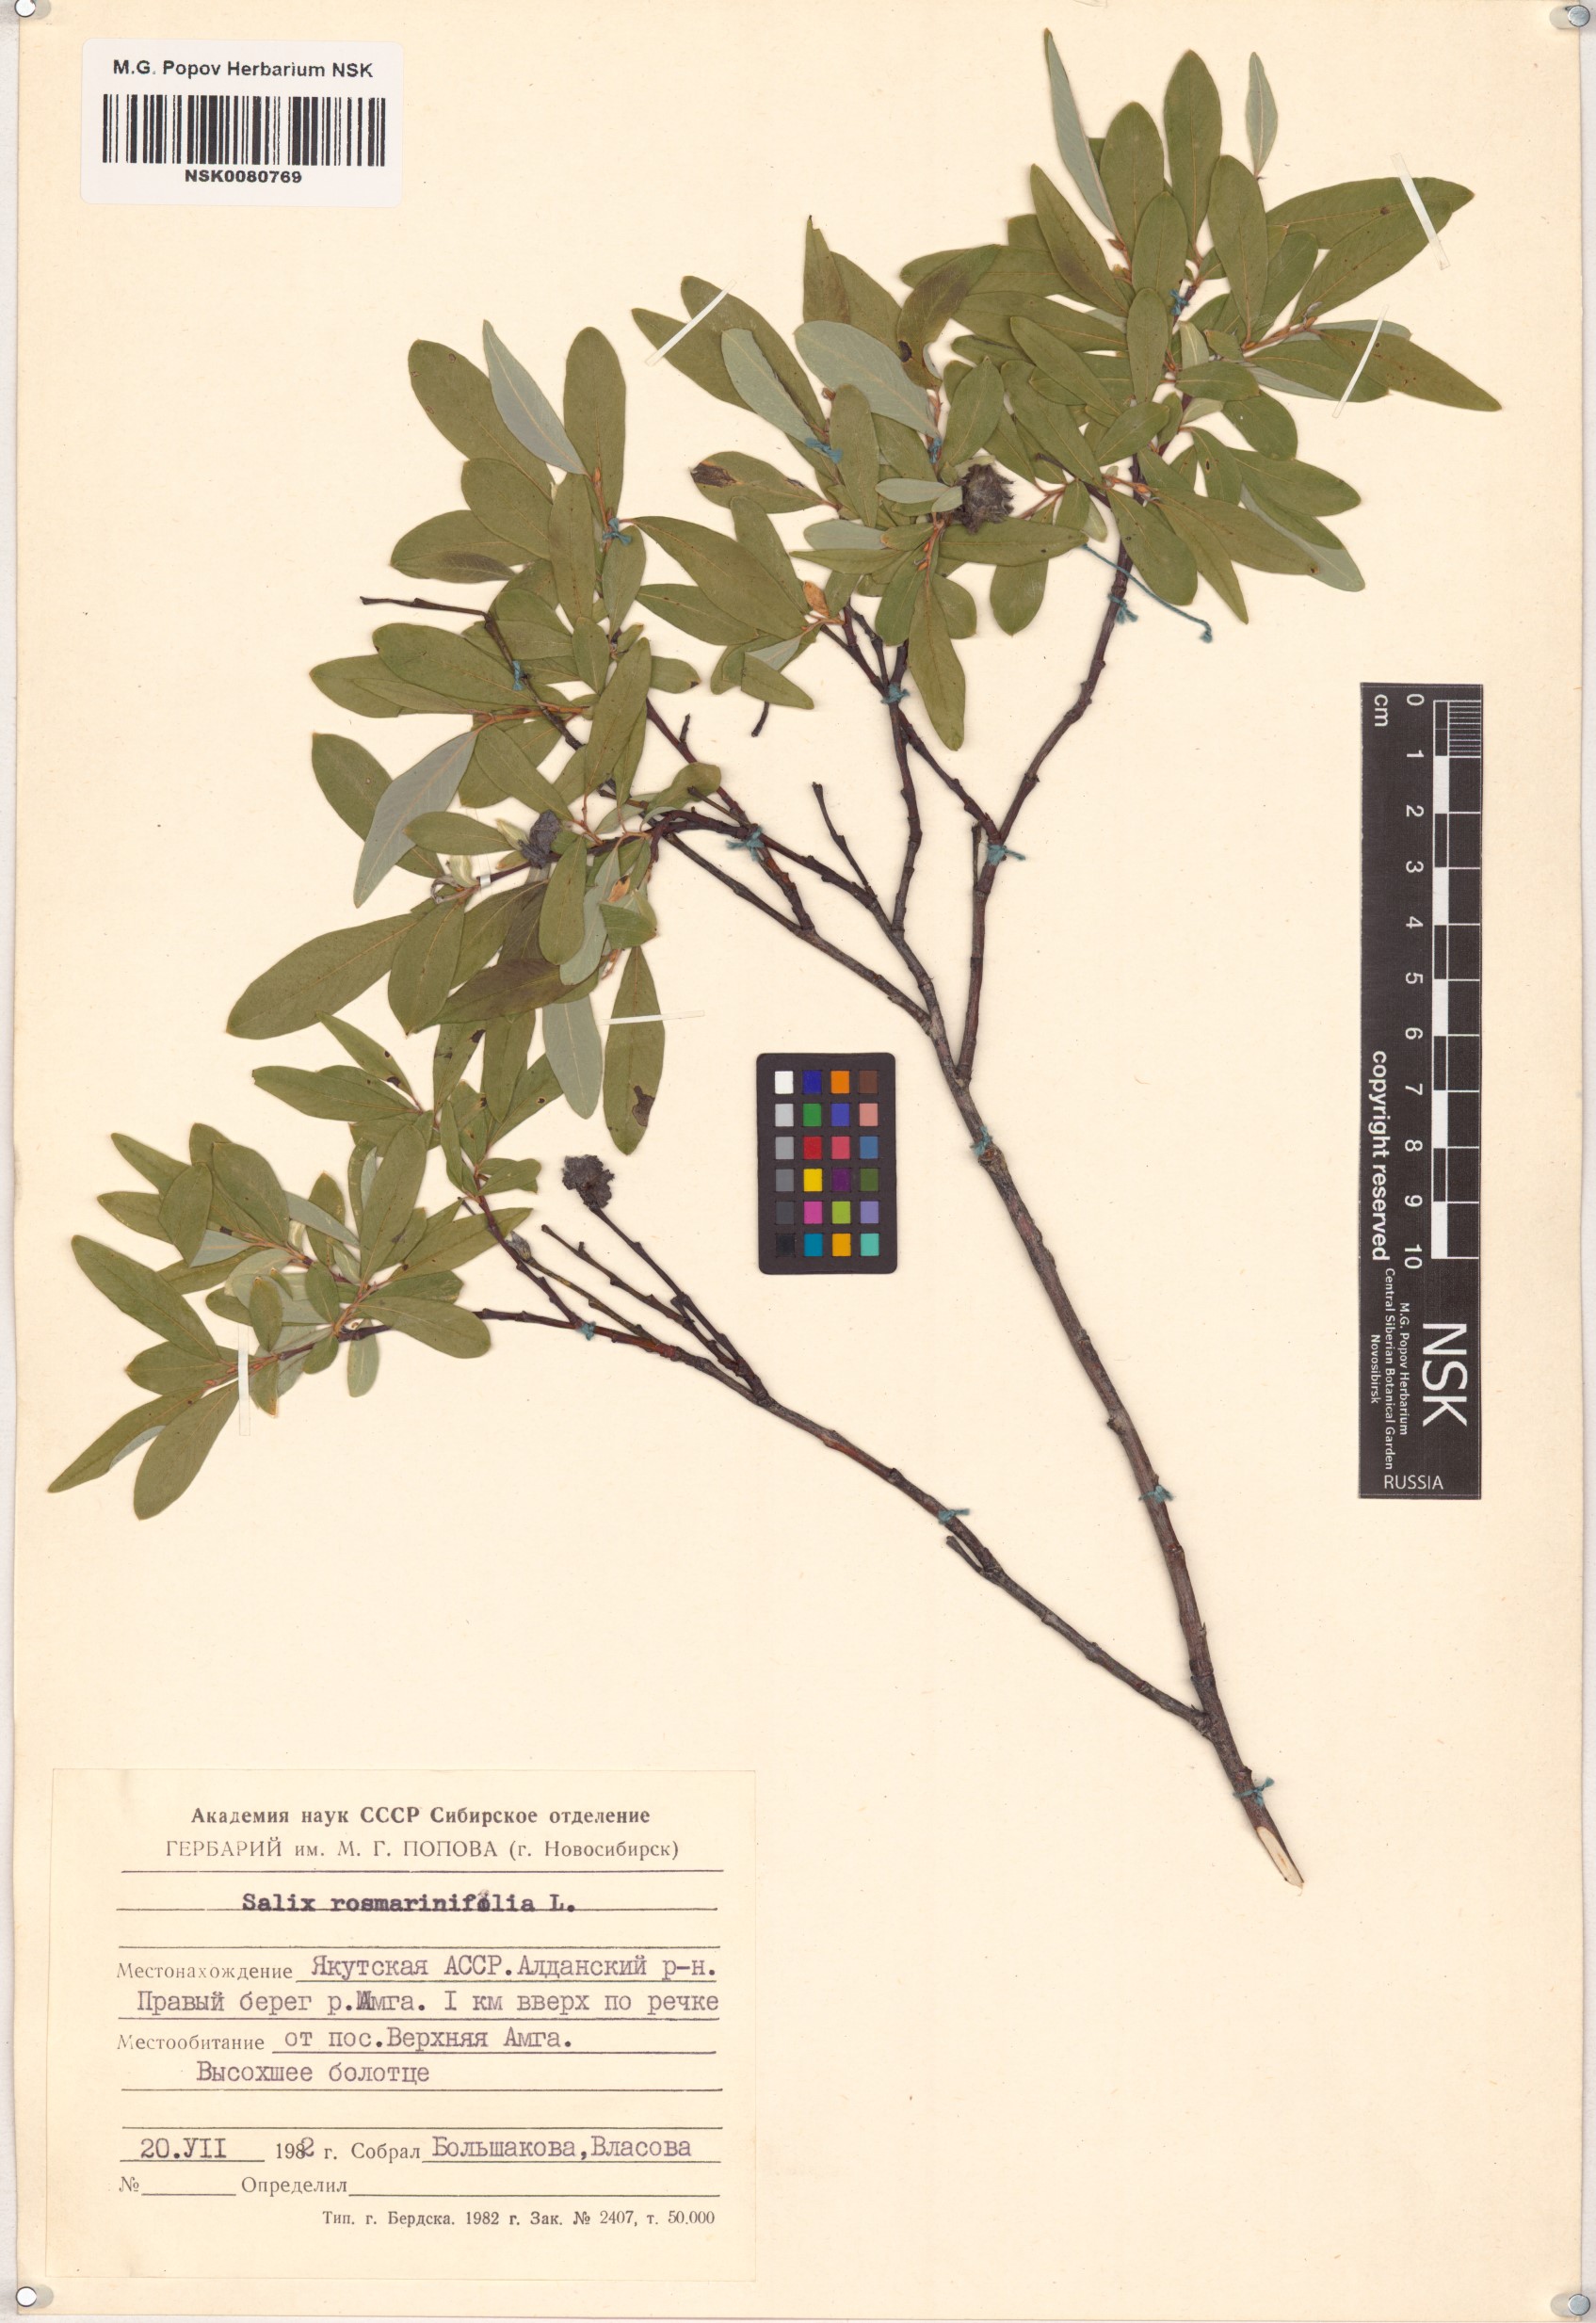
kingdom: Plantae
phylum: Tracheophyta
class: Magnoliopsida
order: Malpighiales
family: Salicaceae
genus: Salix
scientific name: Salix rosmarinifolia
